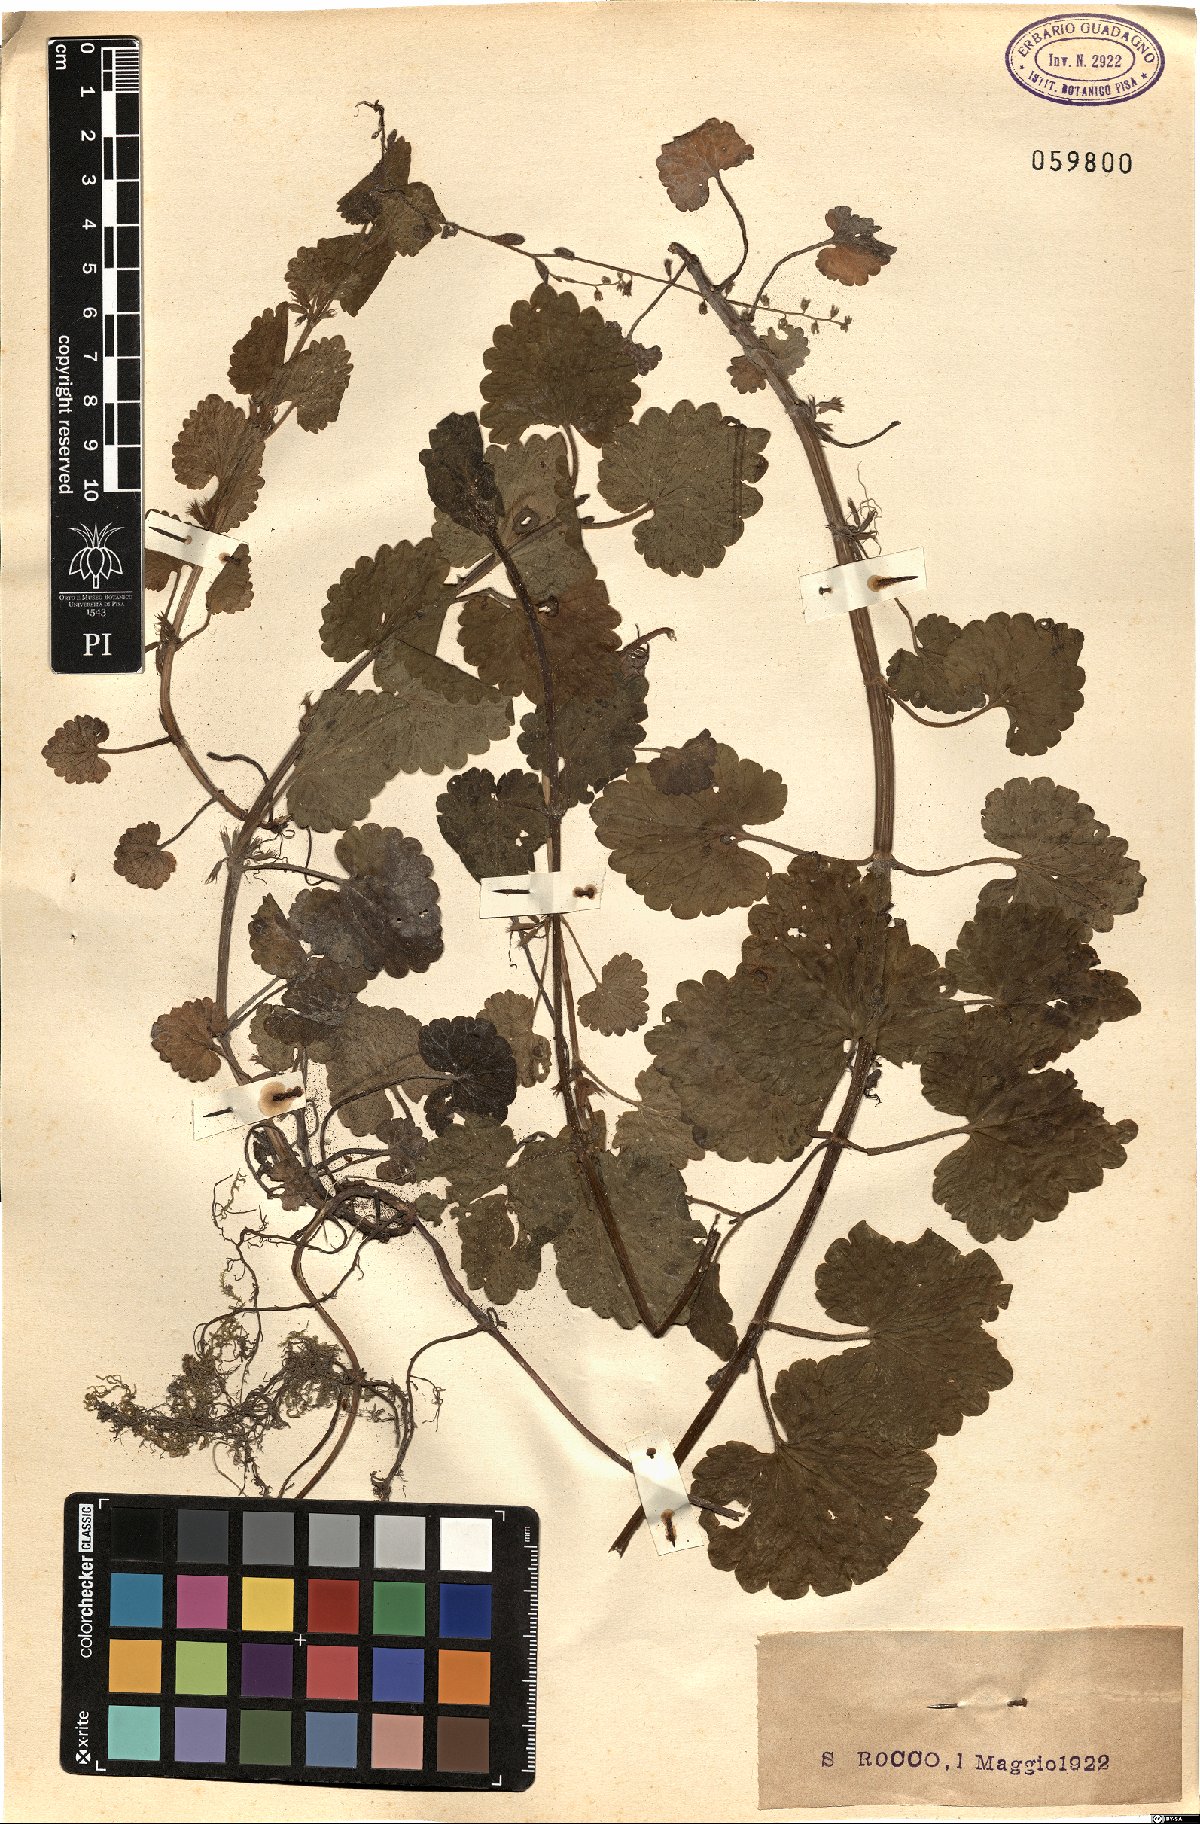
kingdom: Plantae
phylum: Tracheophyta
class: Magnoliopsida
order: Lamiales
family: Lamiaceae
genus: Glechoma
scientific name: Glechoma hirsuta
